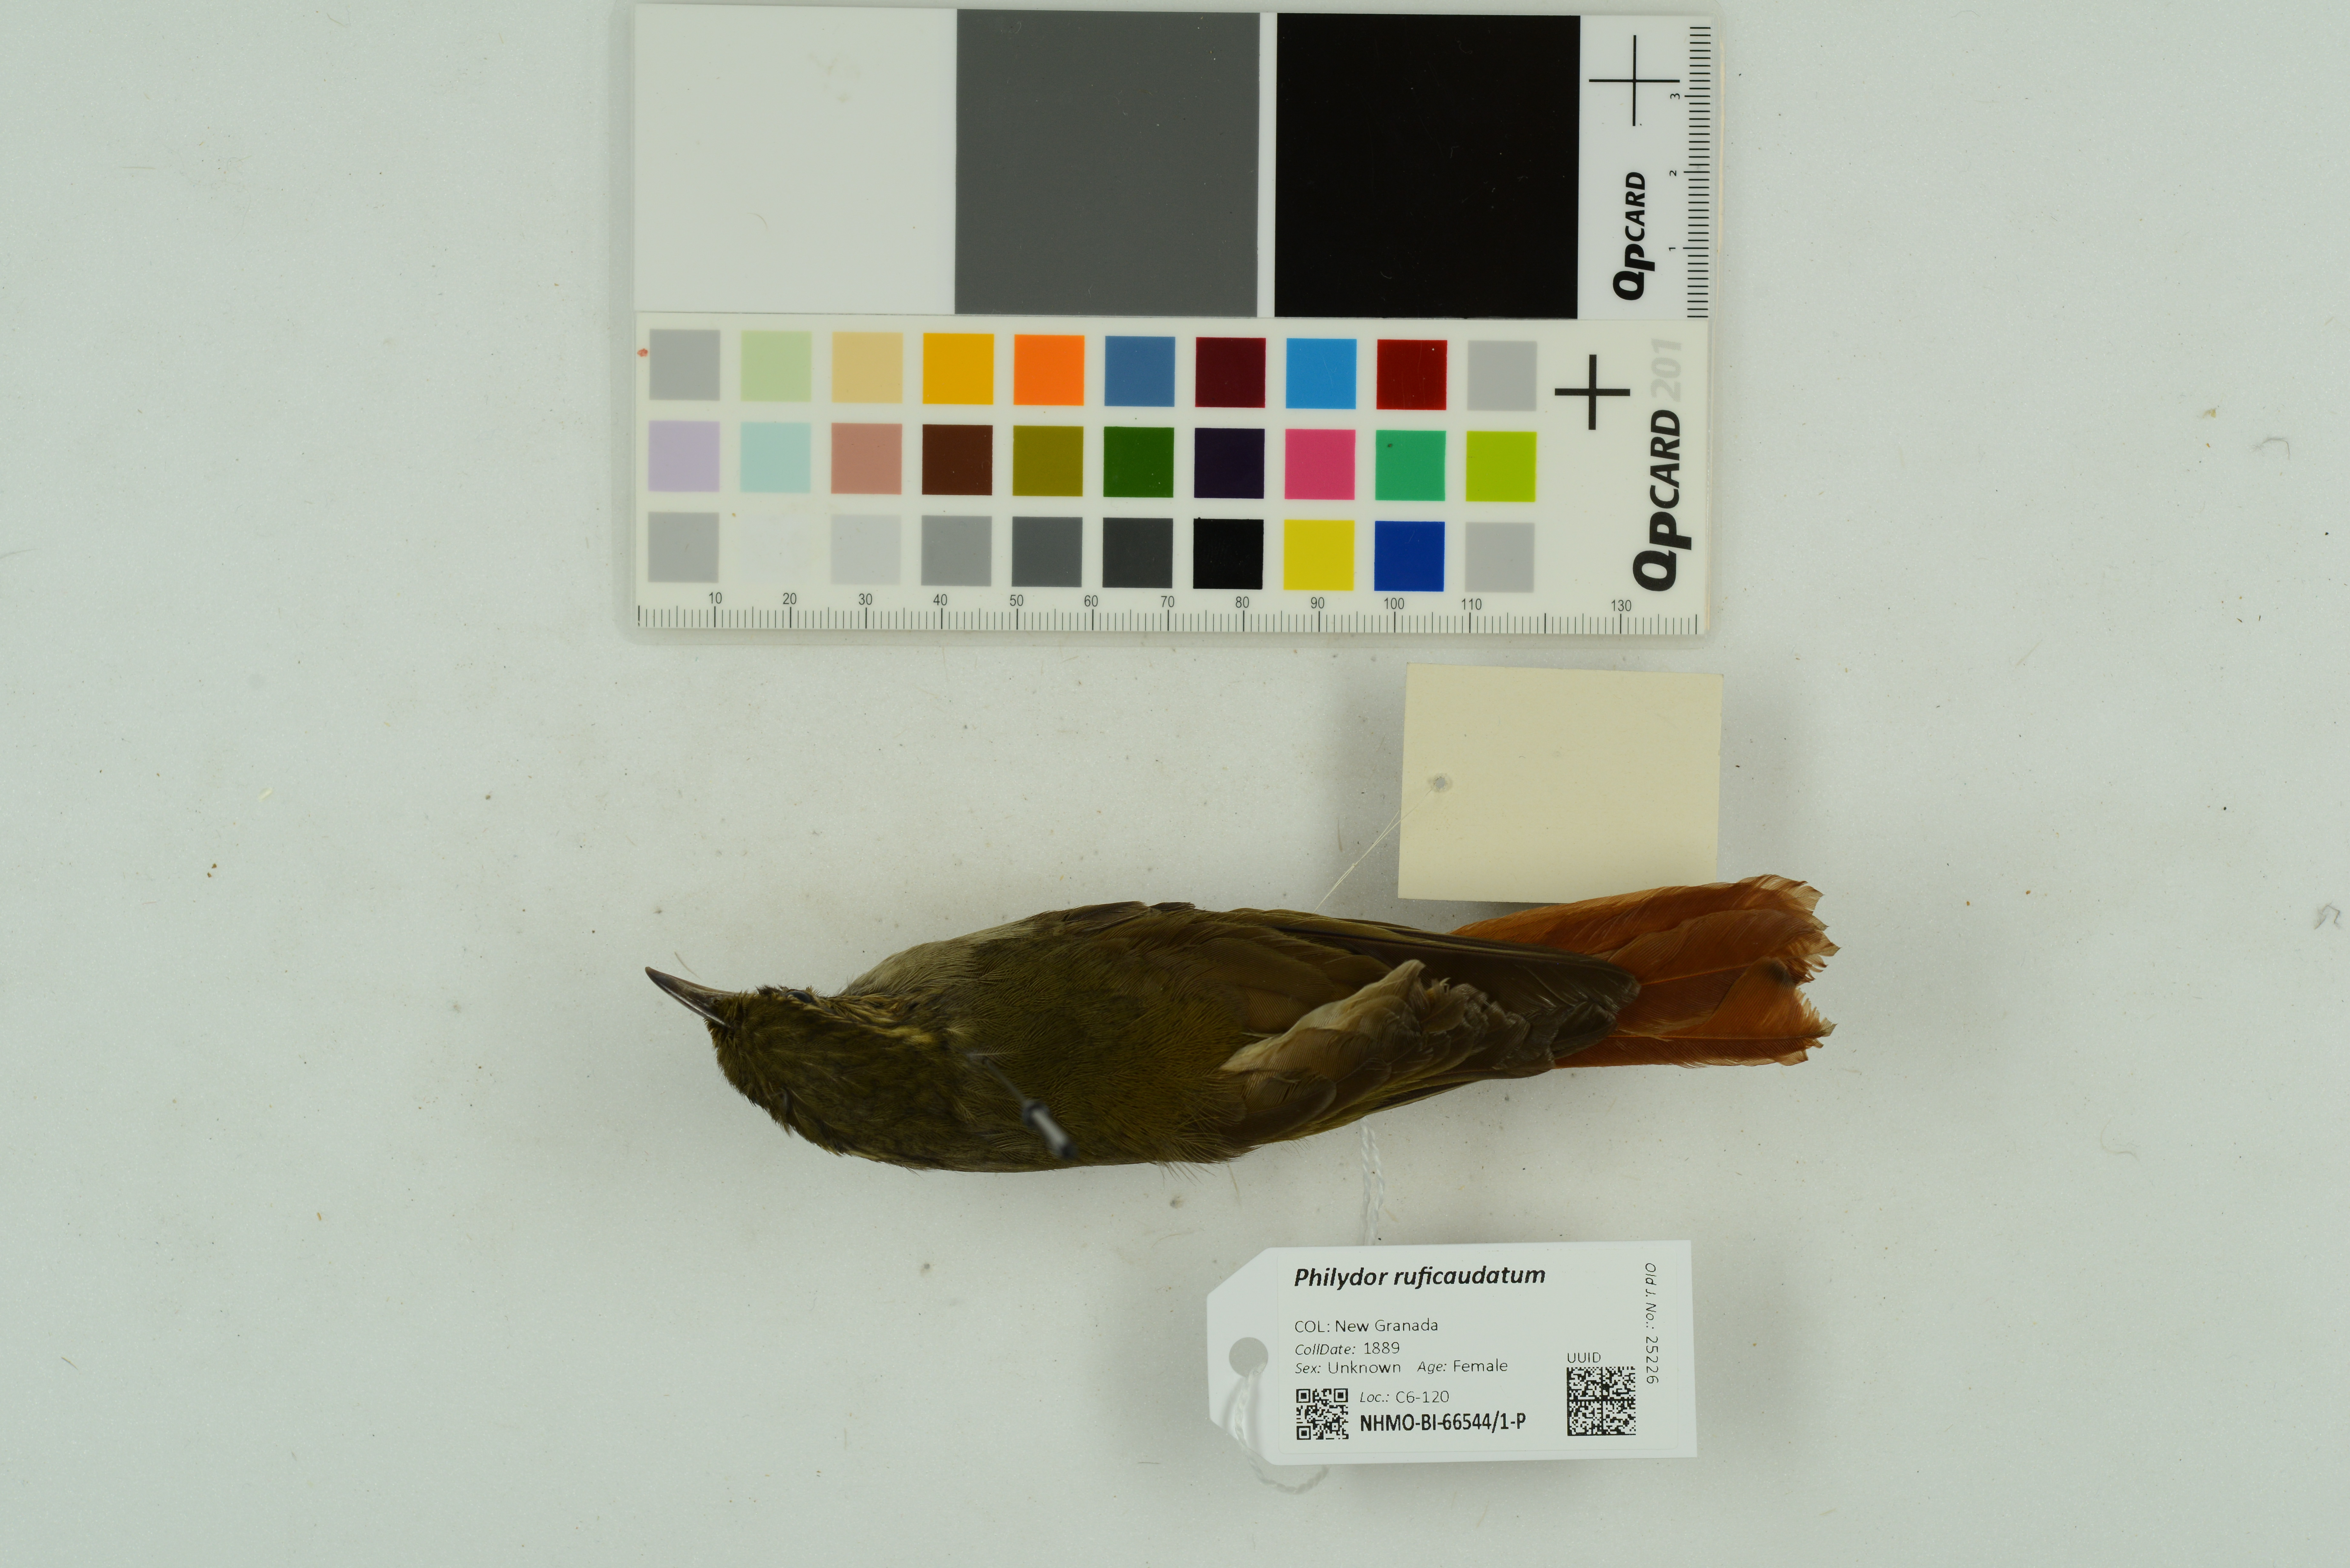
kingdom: Animalia
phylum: Chordata
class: Aves
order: Passeriformes
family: Furnariidae
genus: Philydor
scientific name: Philydor ruficaudatum
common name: Rufous-tailed foliage-gleaner
